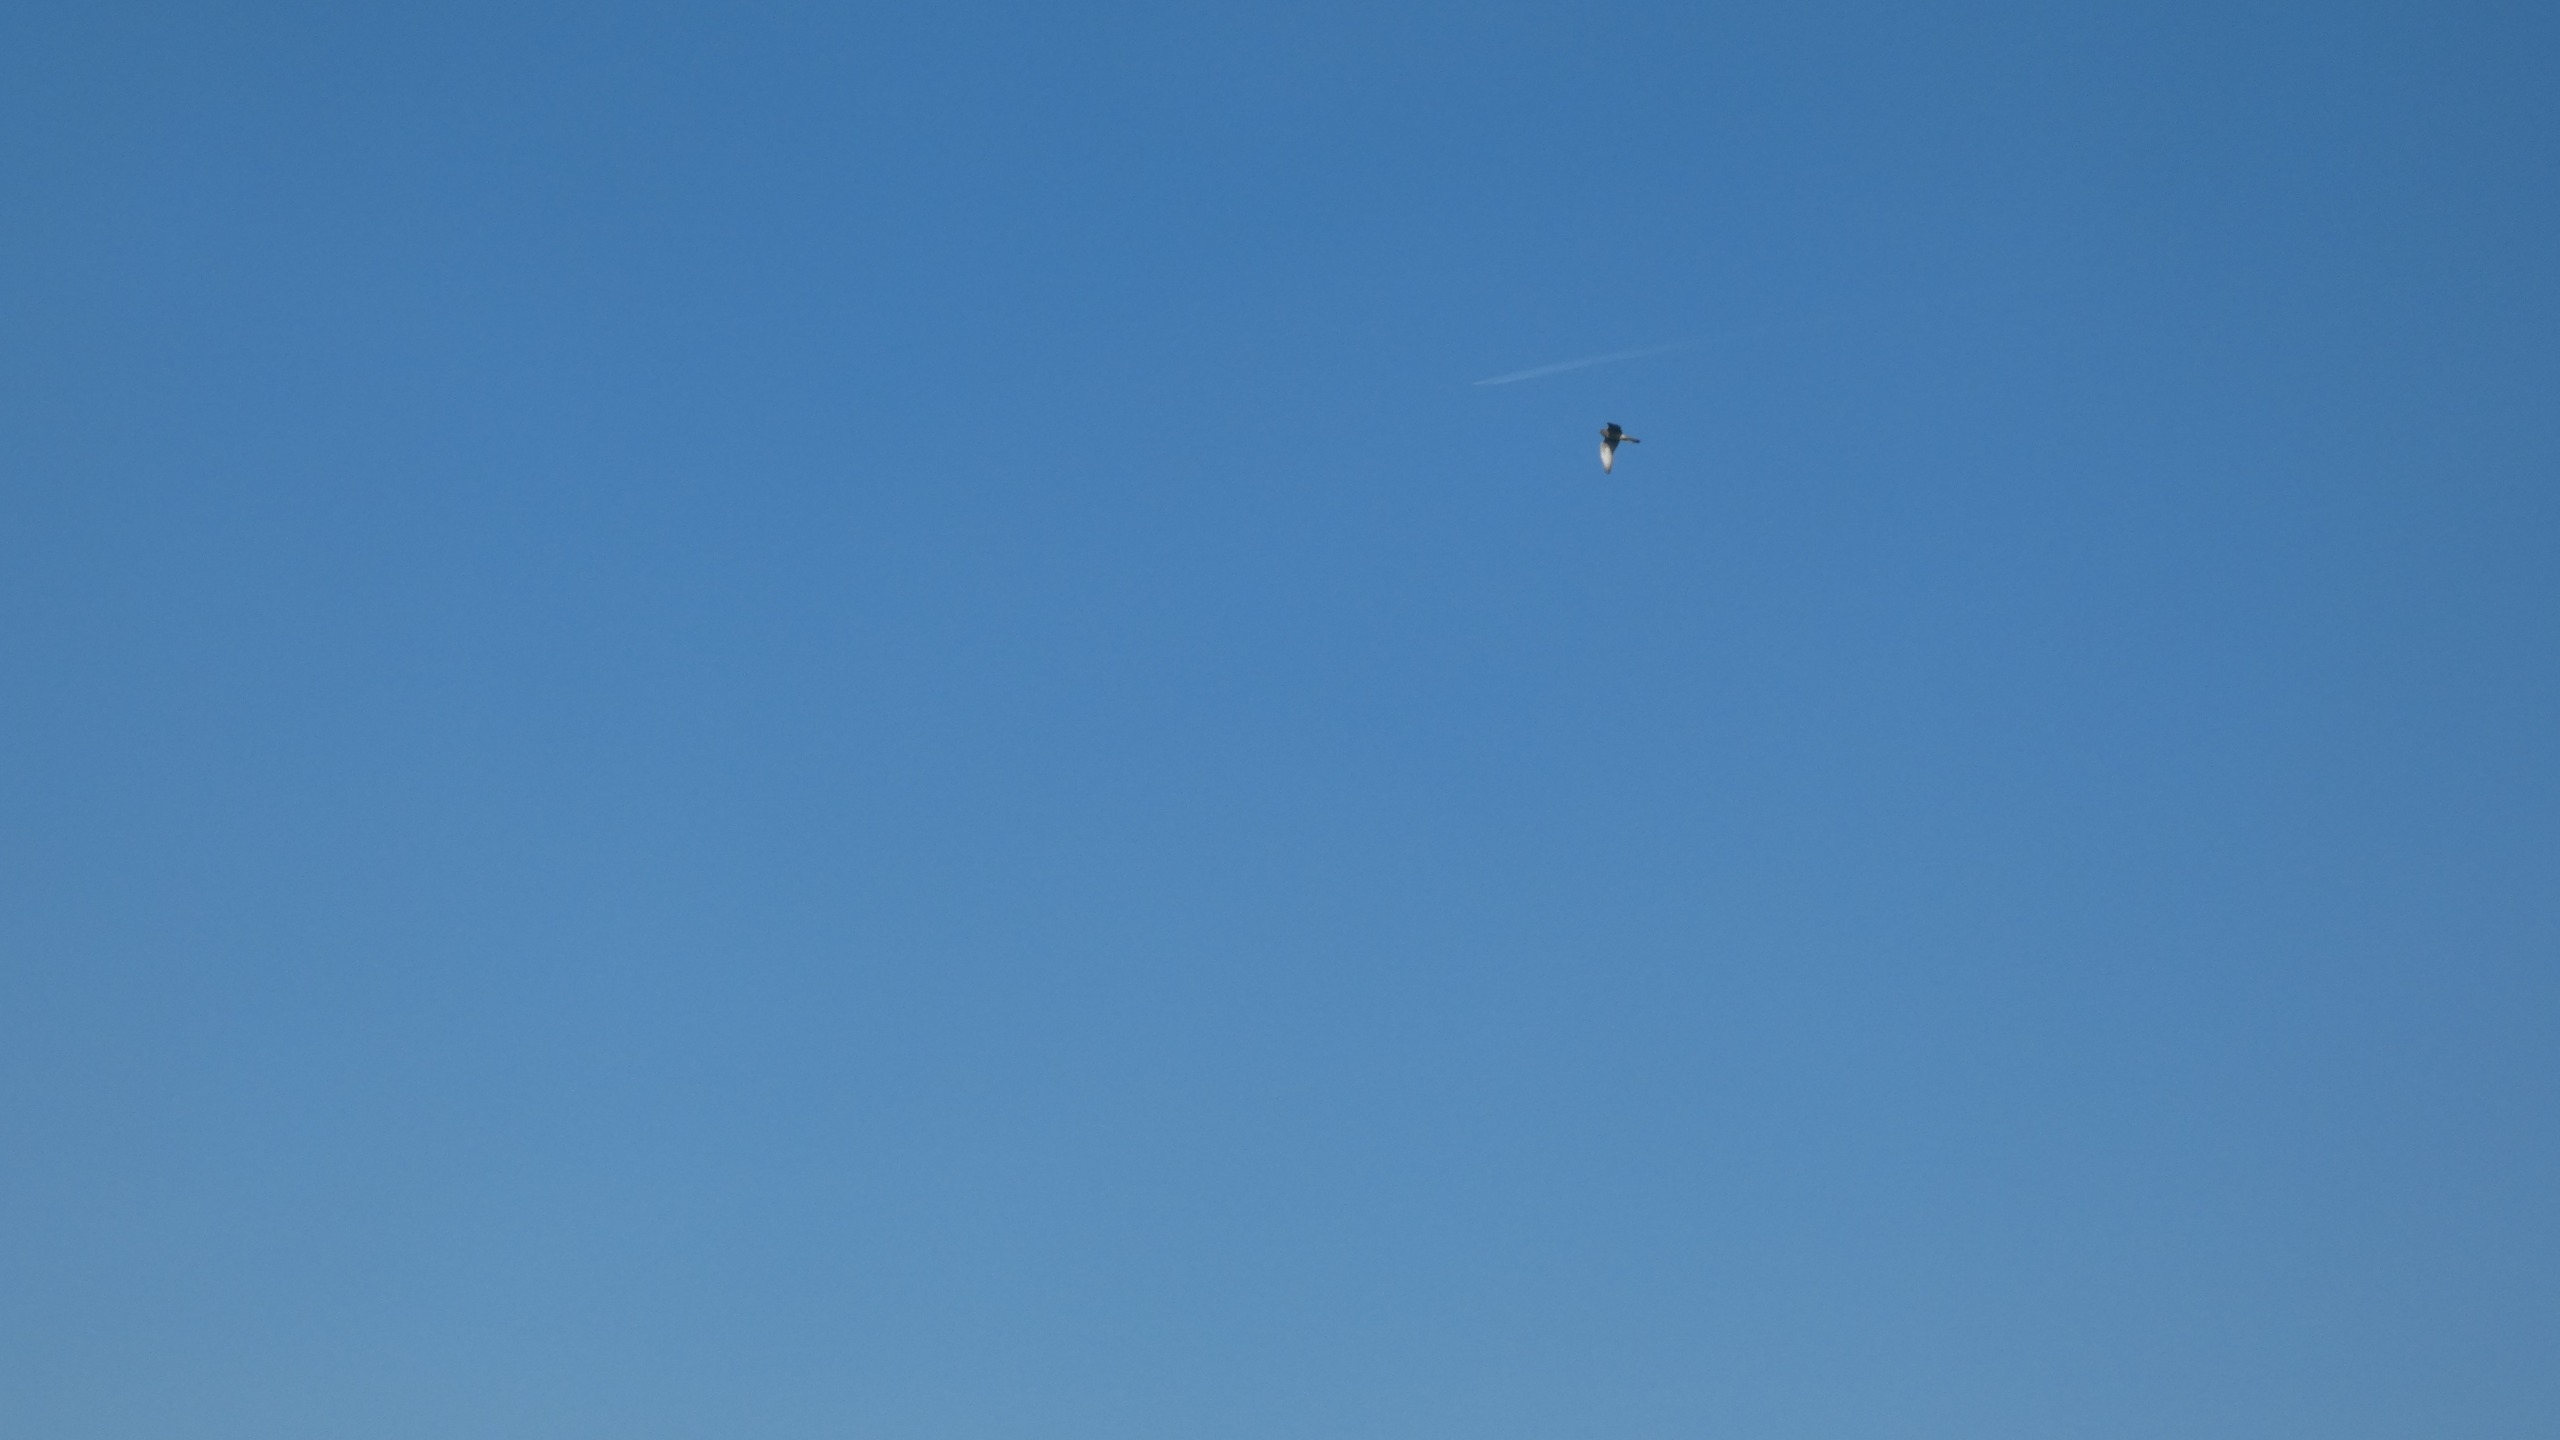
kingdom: Animalia
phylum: Chordata
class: Aves
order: Falconiformes
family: Falconidae
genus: Falco
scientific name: Falco tinnunculus
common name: Tårnfalk
